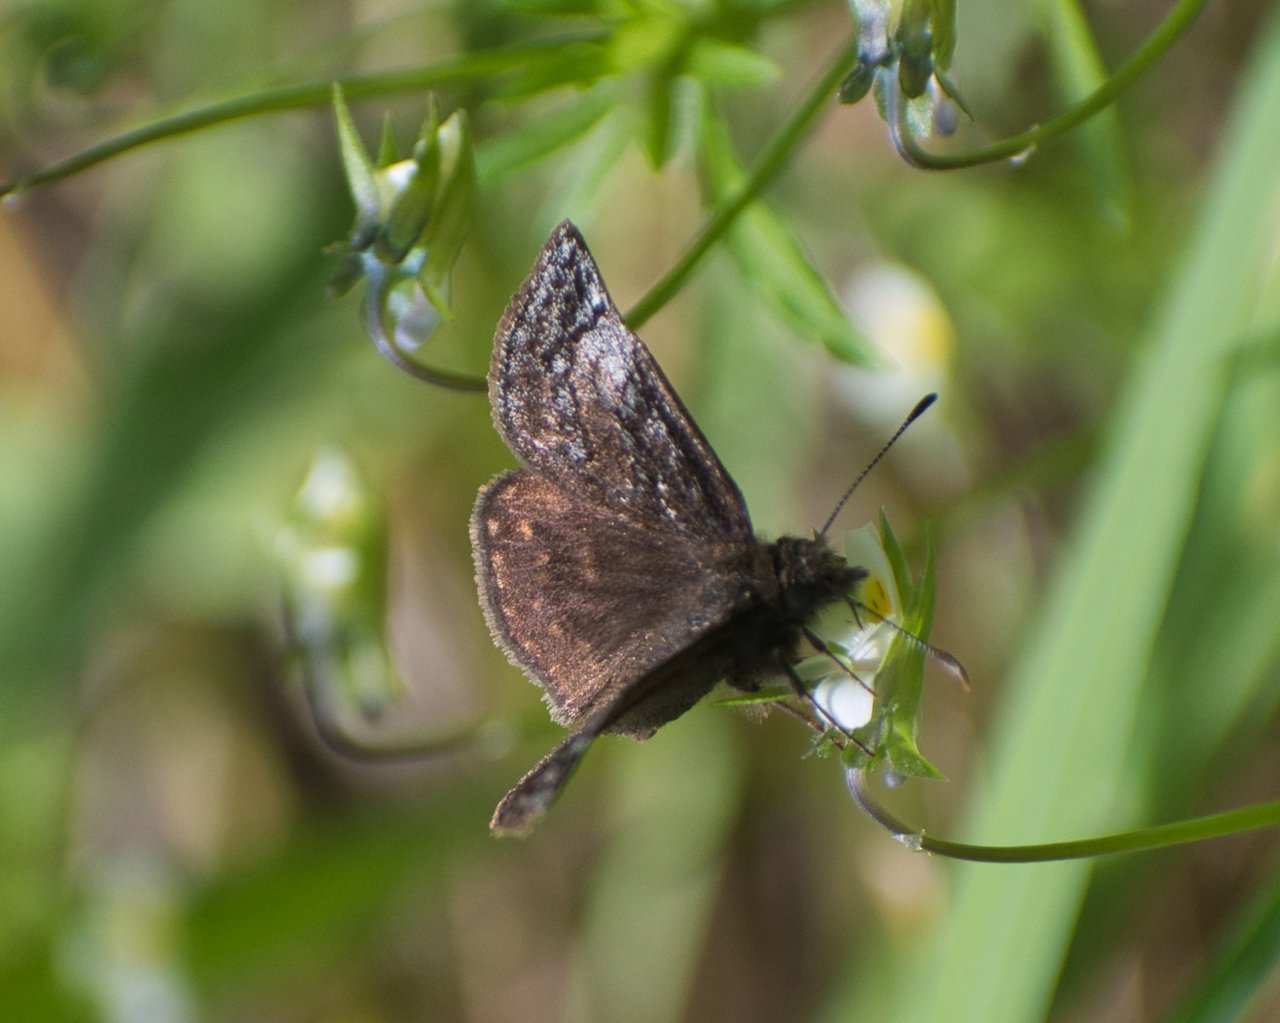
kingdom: Animalia
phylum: Arthropoda
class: Insecta
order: Lepidoptera
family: Hesperiidae
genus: Erynnis
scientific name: Erynnis icelus
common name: Dreamy Duskywing
